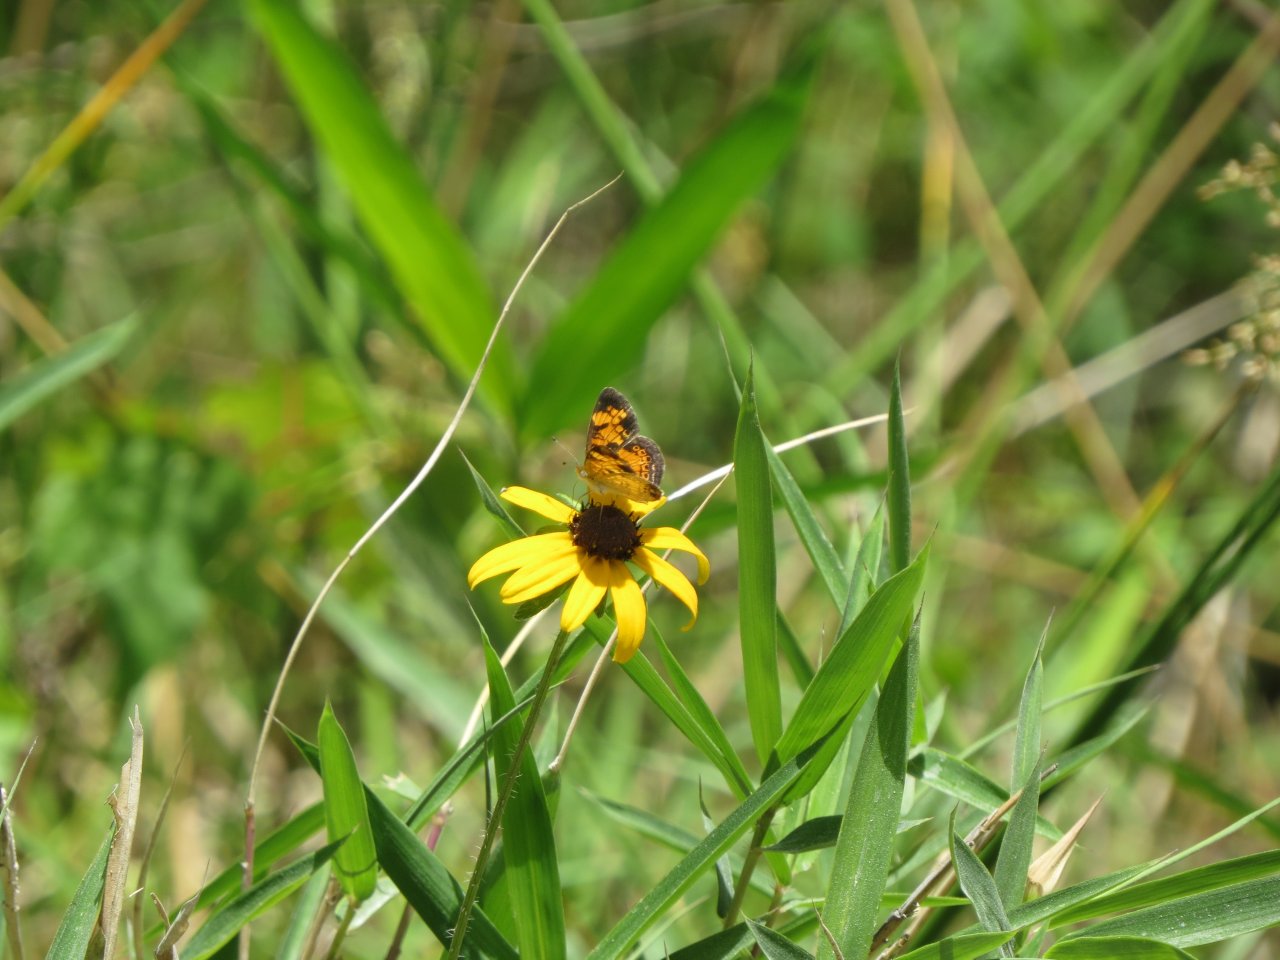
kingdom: Animalia
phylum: Arthropoda
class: Insecta
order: Lepidoptera
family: Nymphalidae
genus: Phyciodes
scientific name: Phyciodes tharos
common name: Pearl Crescent
